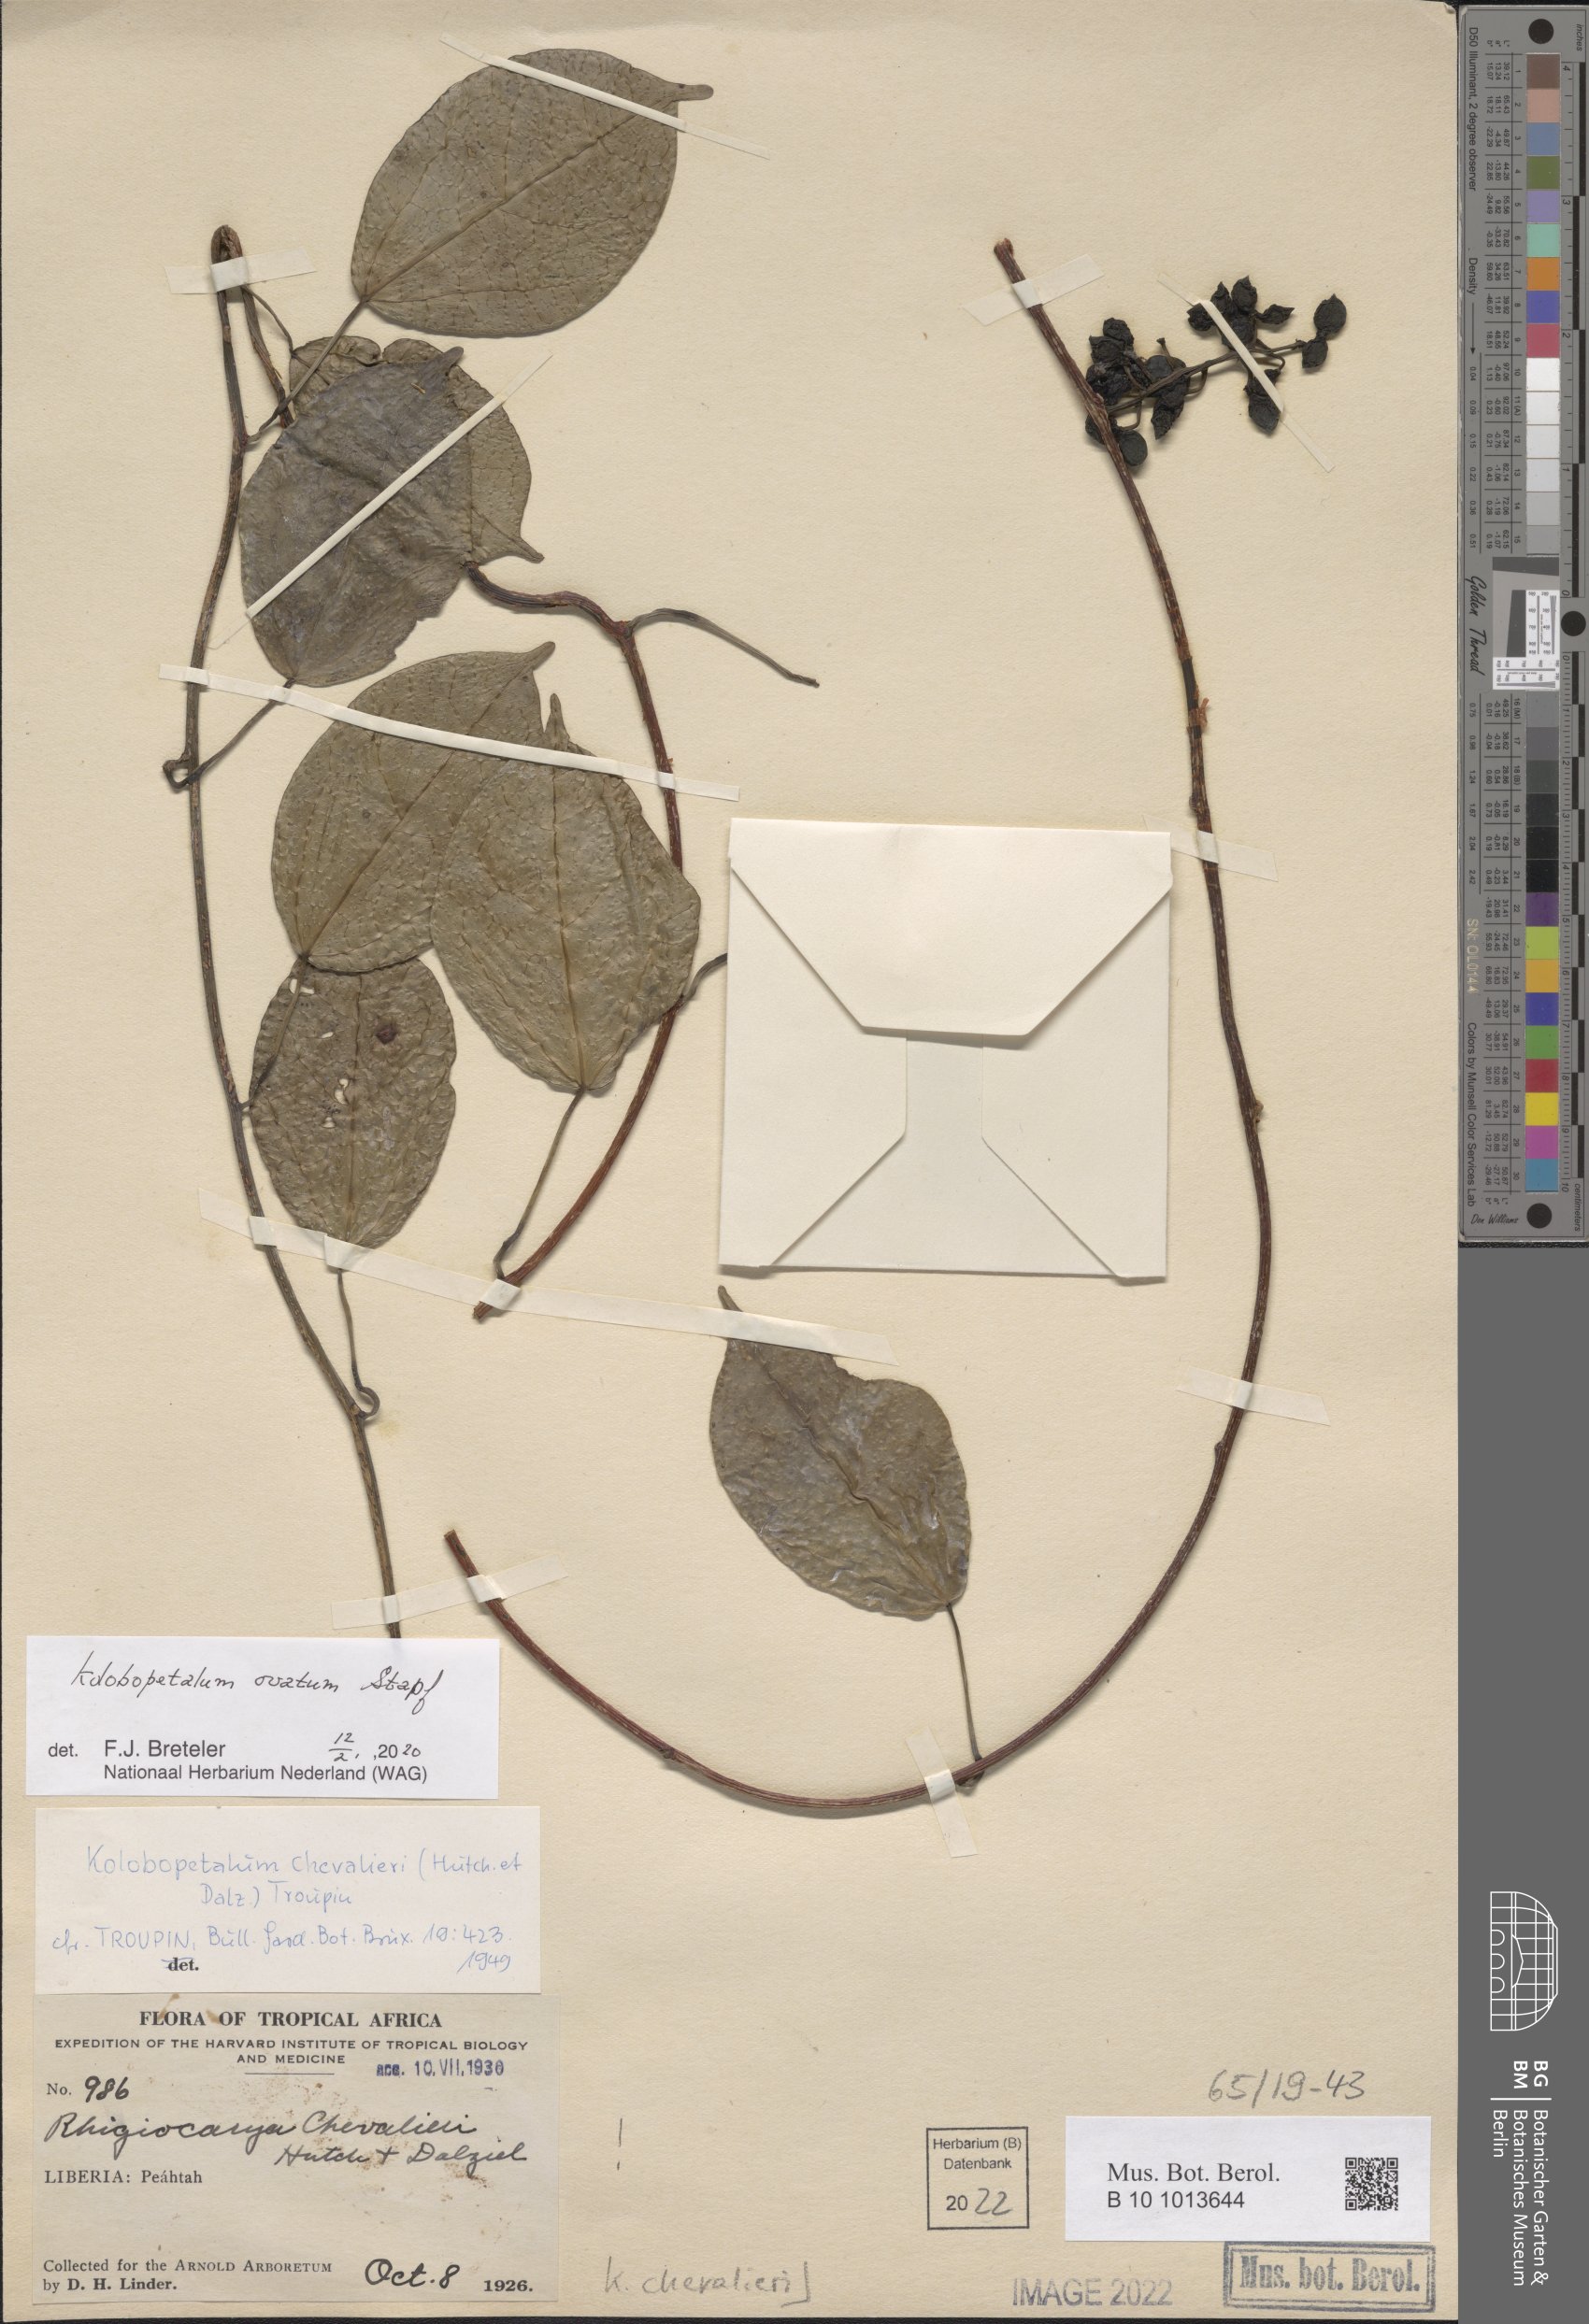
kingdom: Plantae
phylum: Tracheophyta
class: Magnoliopsida
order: Ranunculales
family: Menispermaceae
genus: Kolobopetalum
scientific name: Kolobopetalum ovatum
